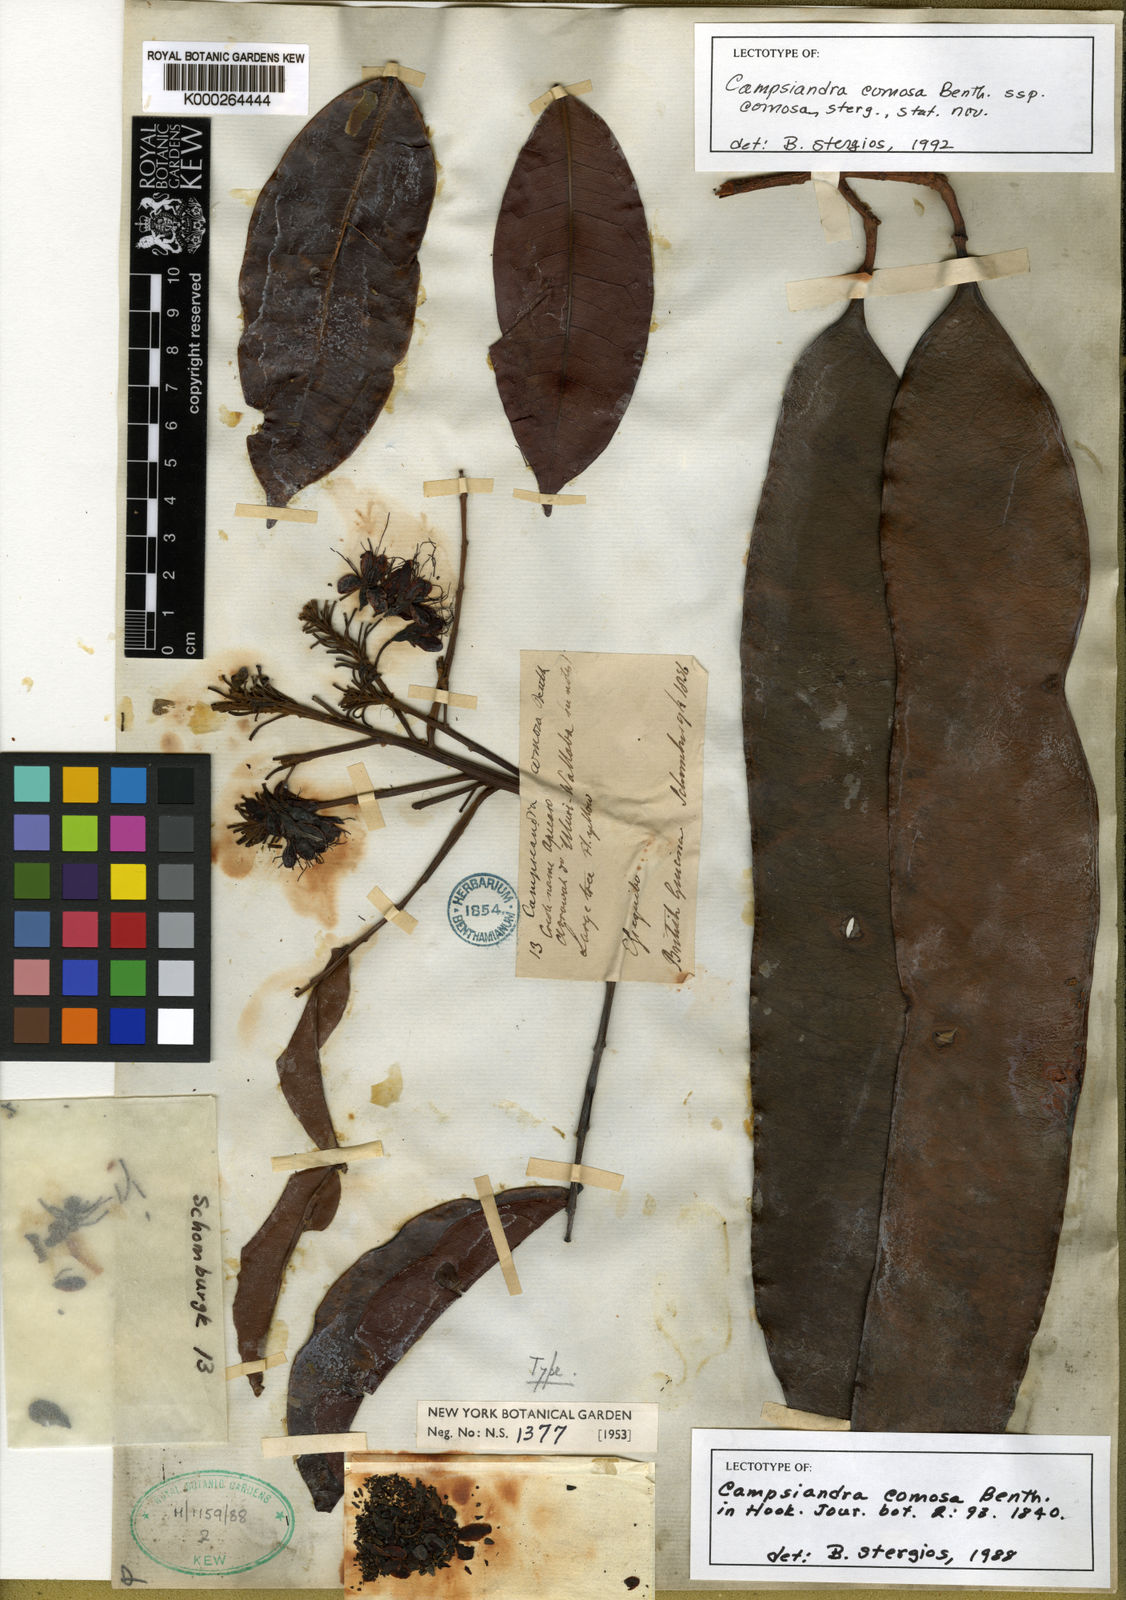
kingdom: Plantae
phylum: Tracheophyta
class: Magnoliopsida
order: Fabales
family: Fabaceae
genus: Campsiandra
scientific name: Campsiandra comosa
